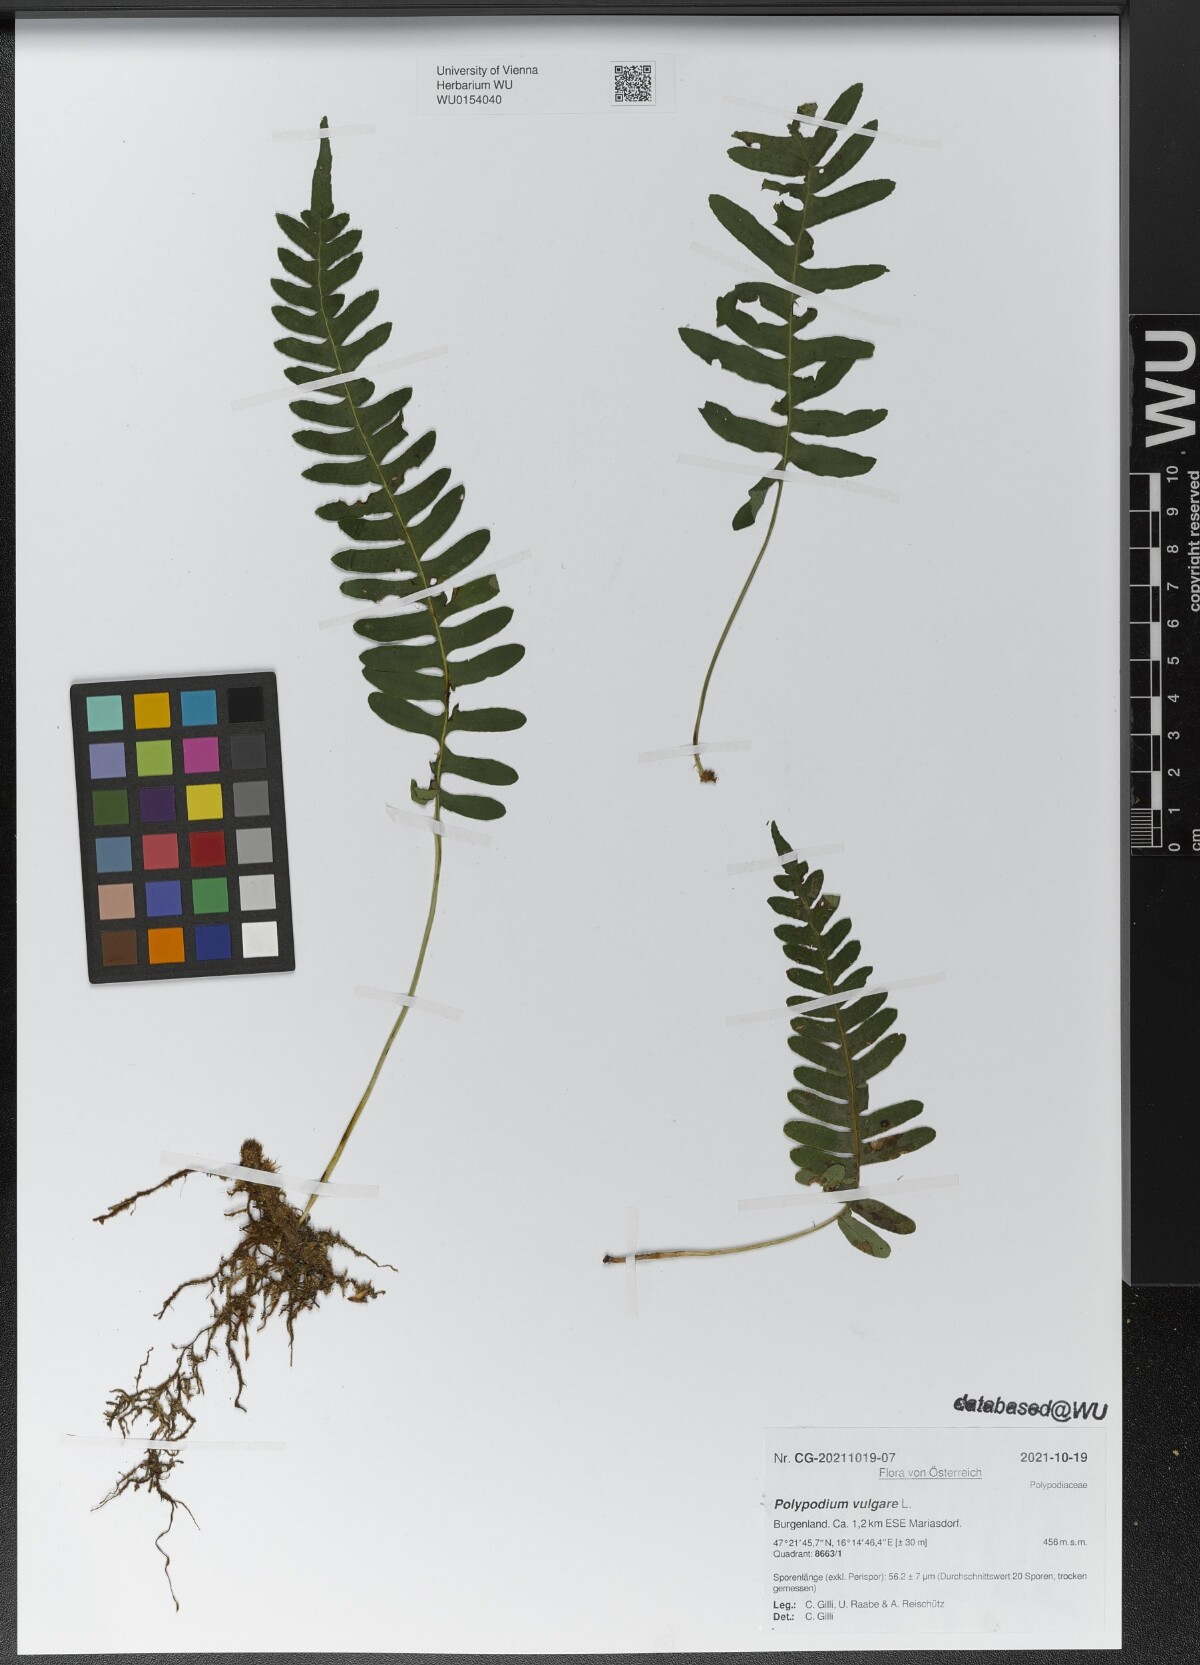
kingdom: Plantae
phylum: Tracheophyta
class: Polypodiopsida
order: Polypodiales
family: Polypodiaceae
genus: Polypodium
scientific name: Polypodium vulgare
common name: Common polypody
